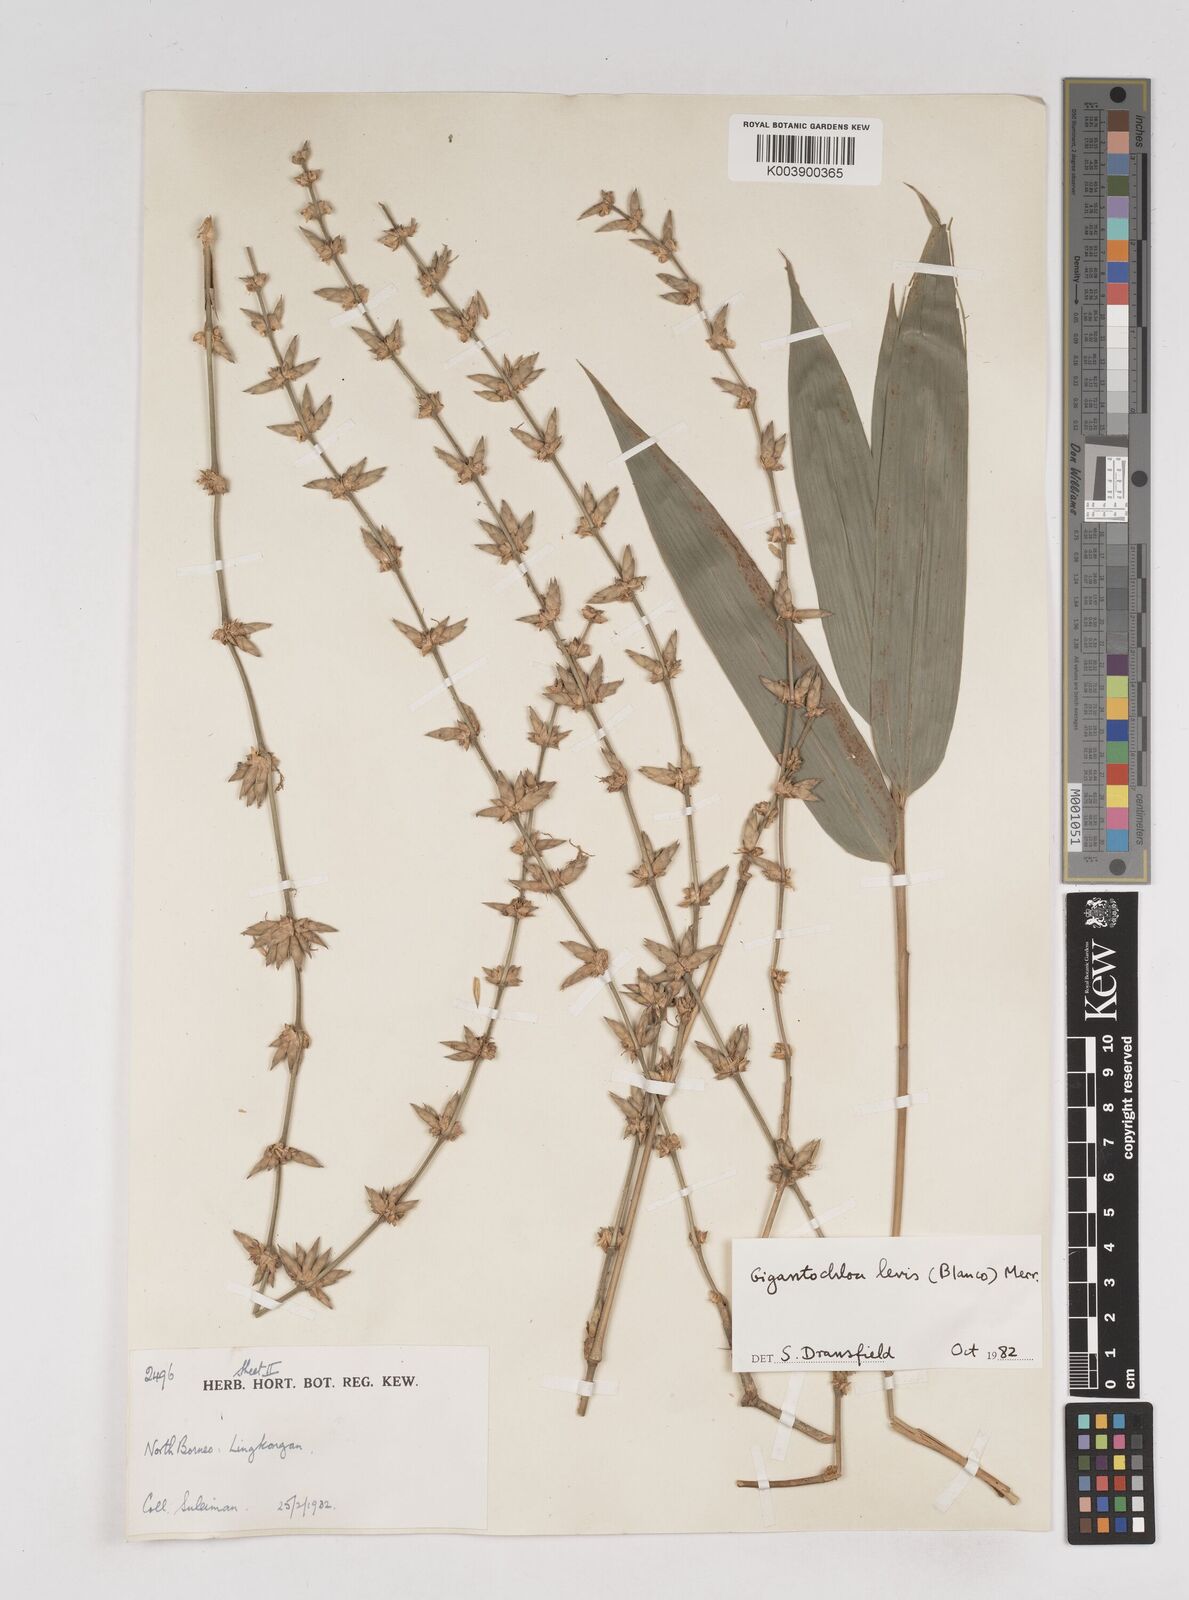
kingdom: Plantae
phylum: Tracheophyta
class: Liliopsida
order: Poales
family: Poaceae
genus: Gigantochloa
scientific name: Gigantochloa
